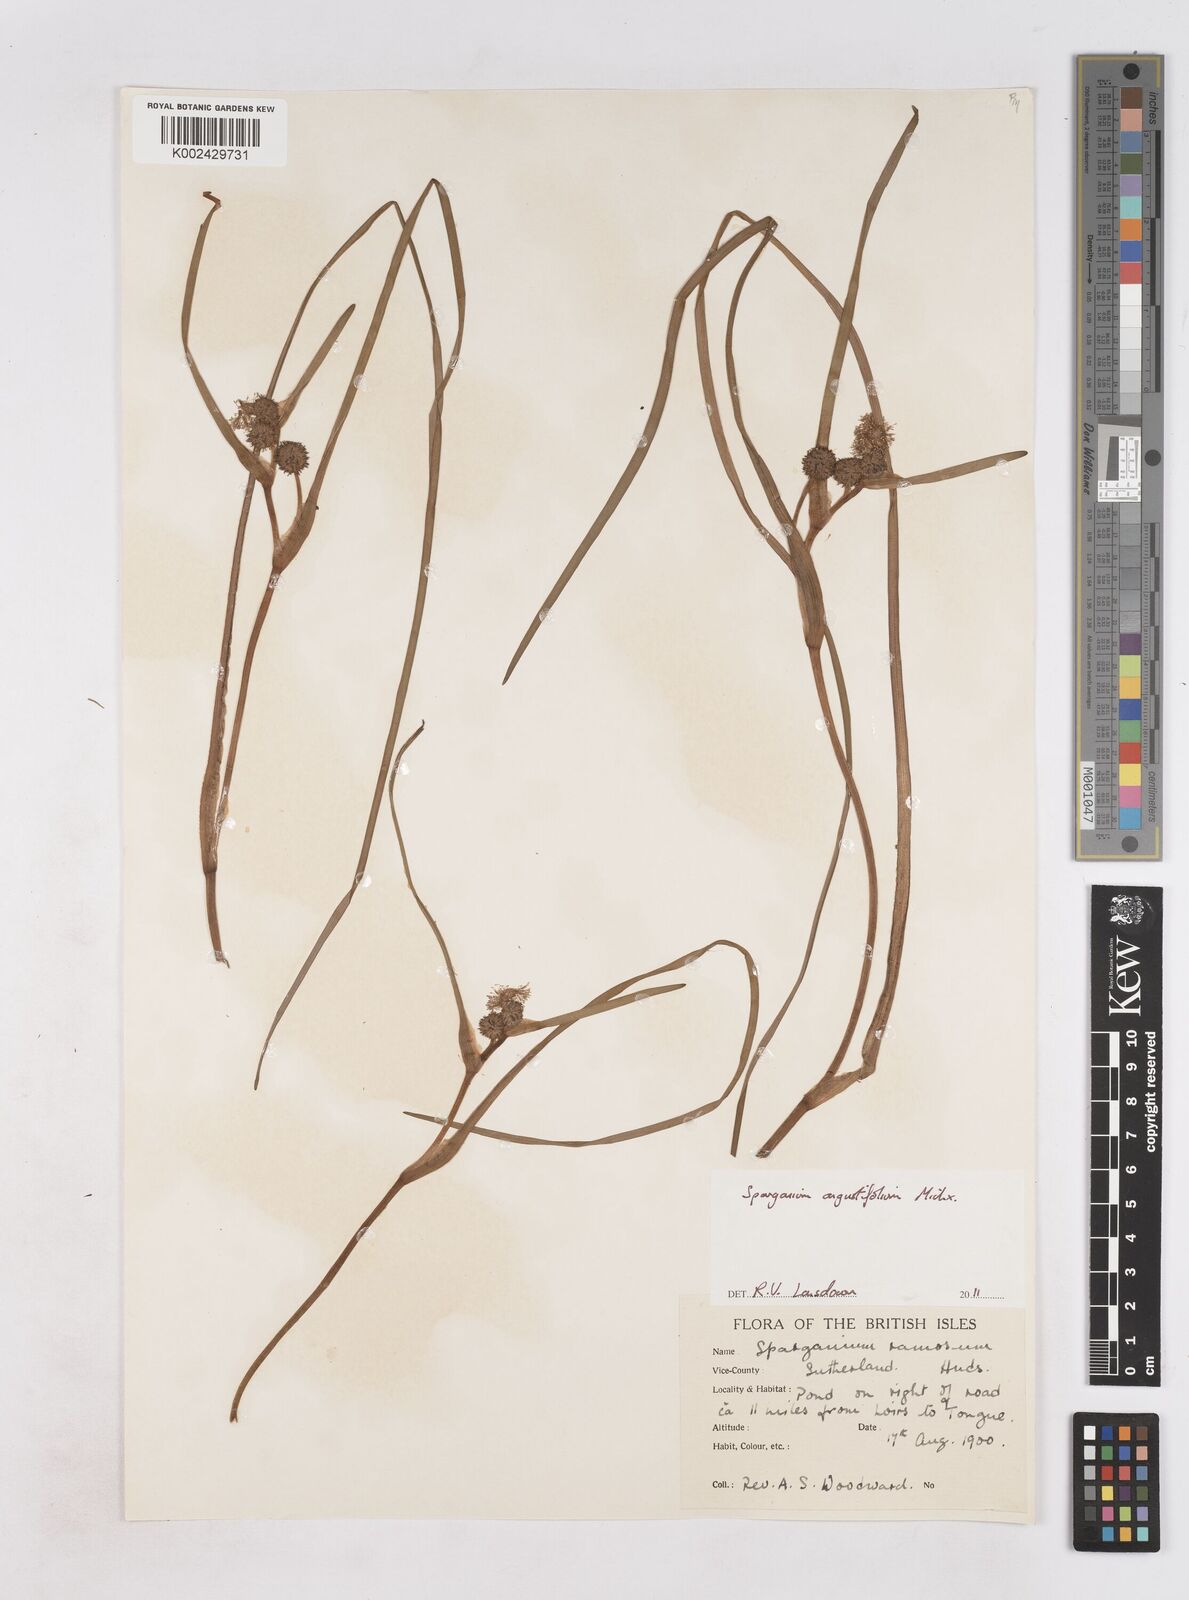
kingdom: Plantae
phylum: Tracheophyta
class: Liliopsida
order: Poales
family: Typhaceae
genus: Sparganium
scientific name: Sparganium angustifolium
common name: Floating bur-reed
